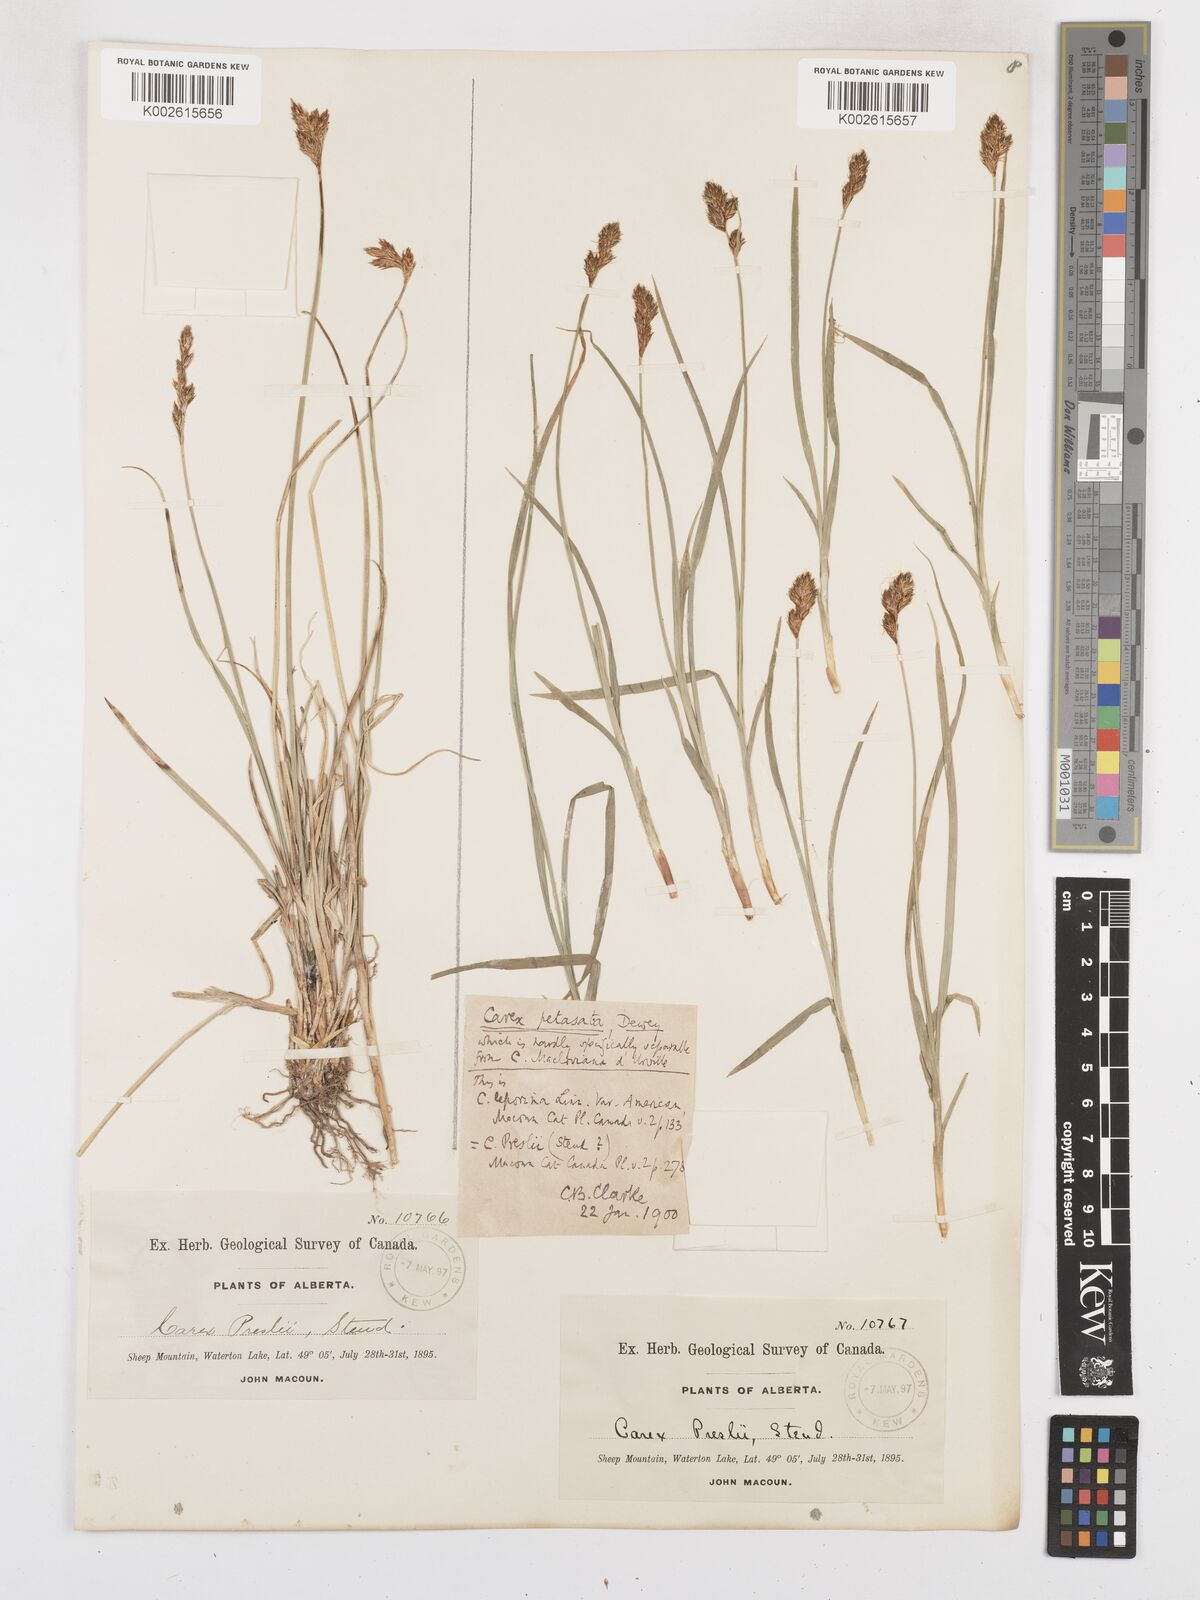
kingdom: Plantae
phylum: Tracheophyta
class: Liliopsida
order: Poales
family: Cyperaceae
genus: Carex
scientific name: Carex preslii
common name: Presl's sedge
